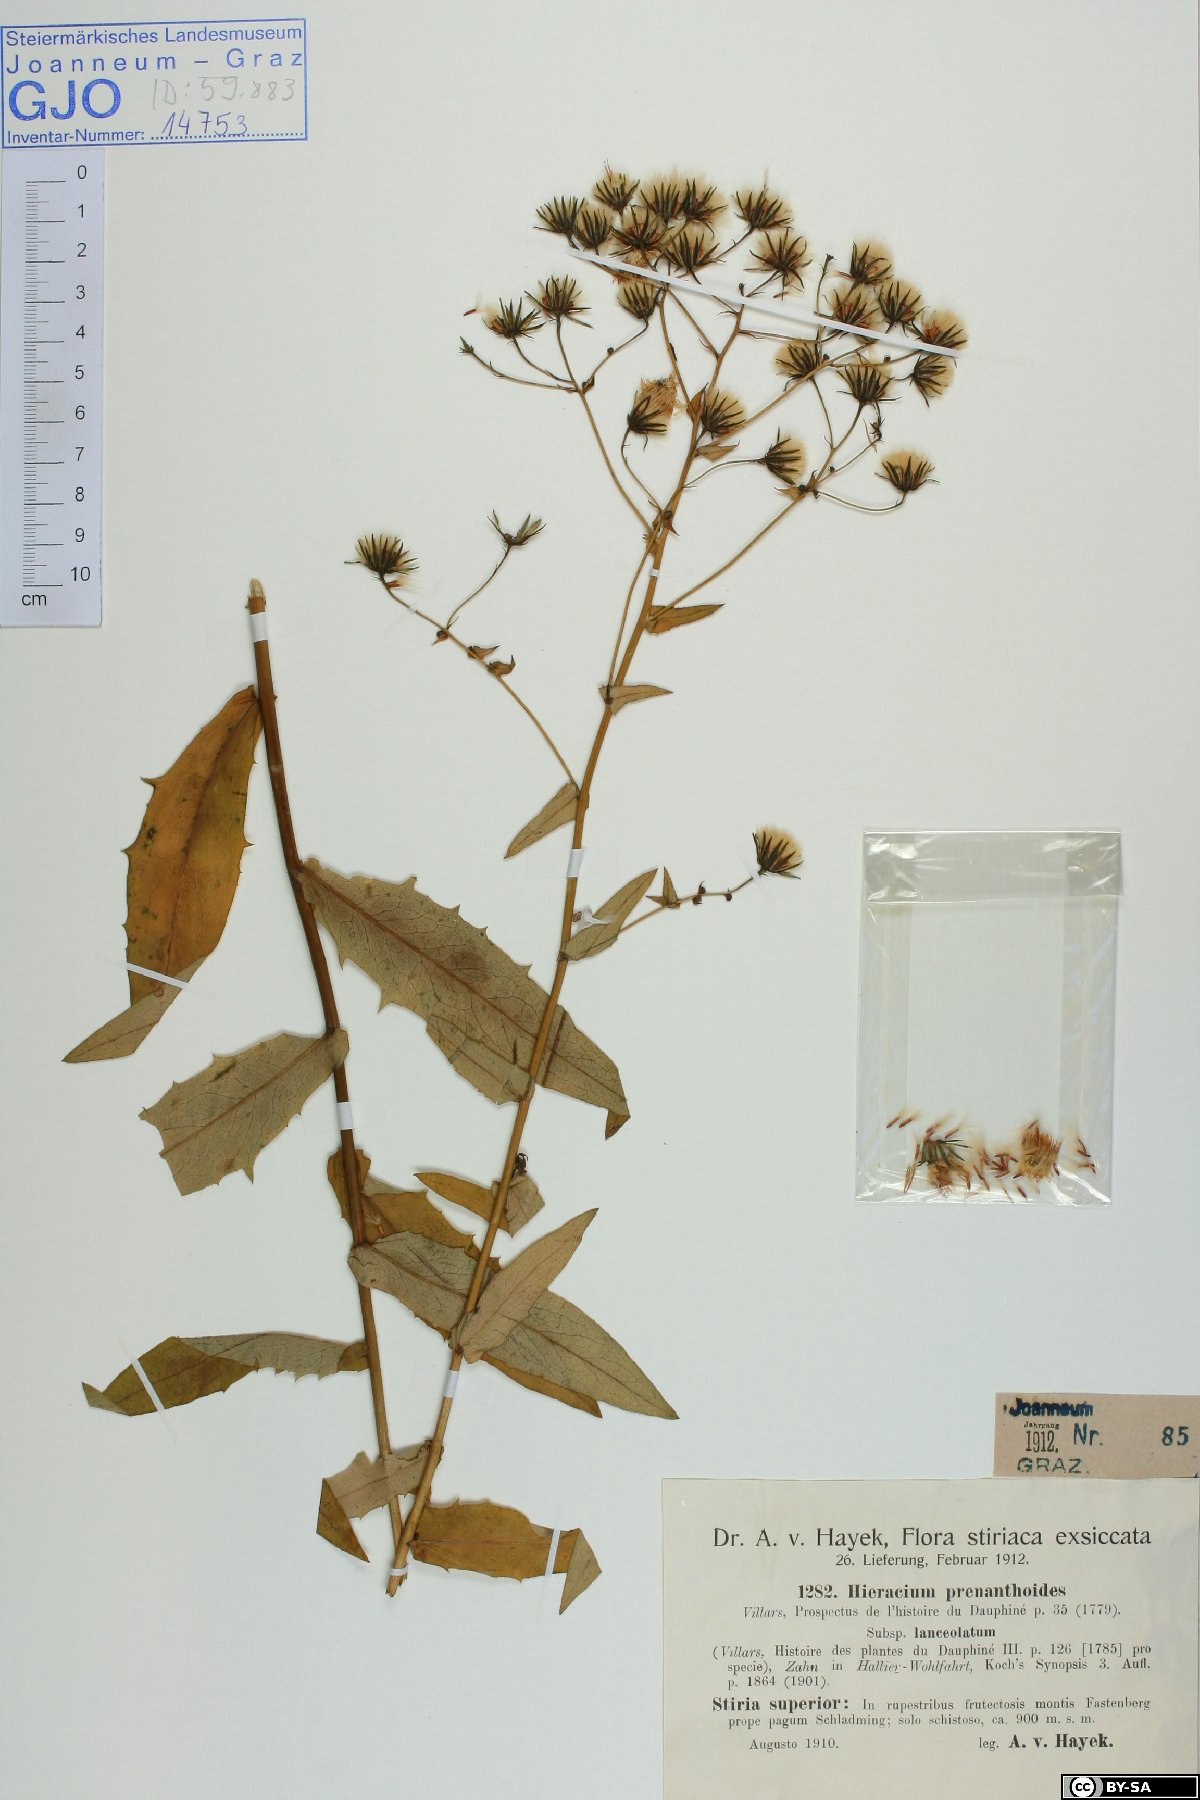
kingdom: Plantae
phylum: Tracheophyta
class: Magnoliopsida
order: Asterales
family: Asteraceae
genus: Hieracium
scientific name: Hieracium prenanthoides
